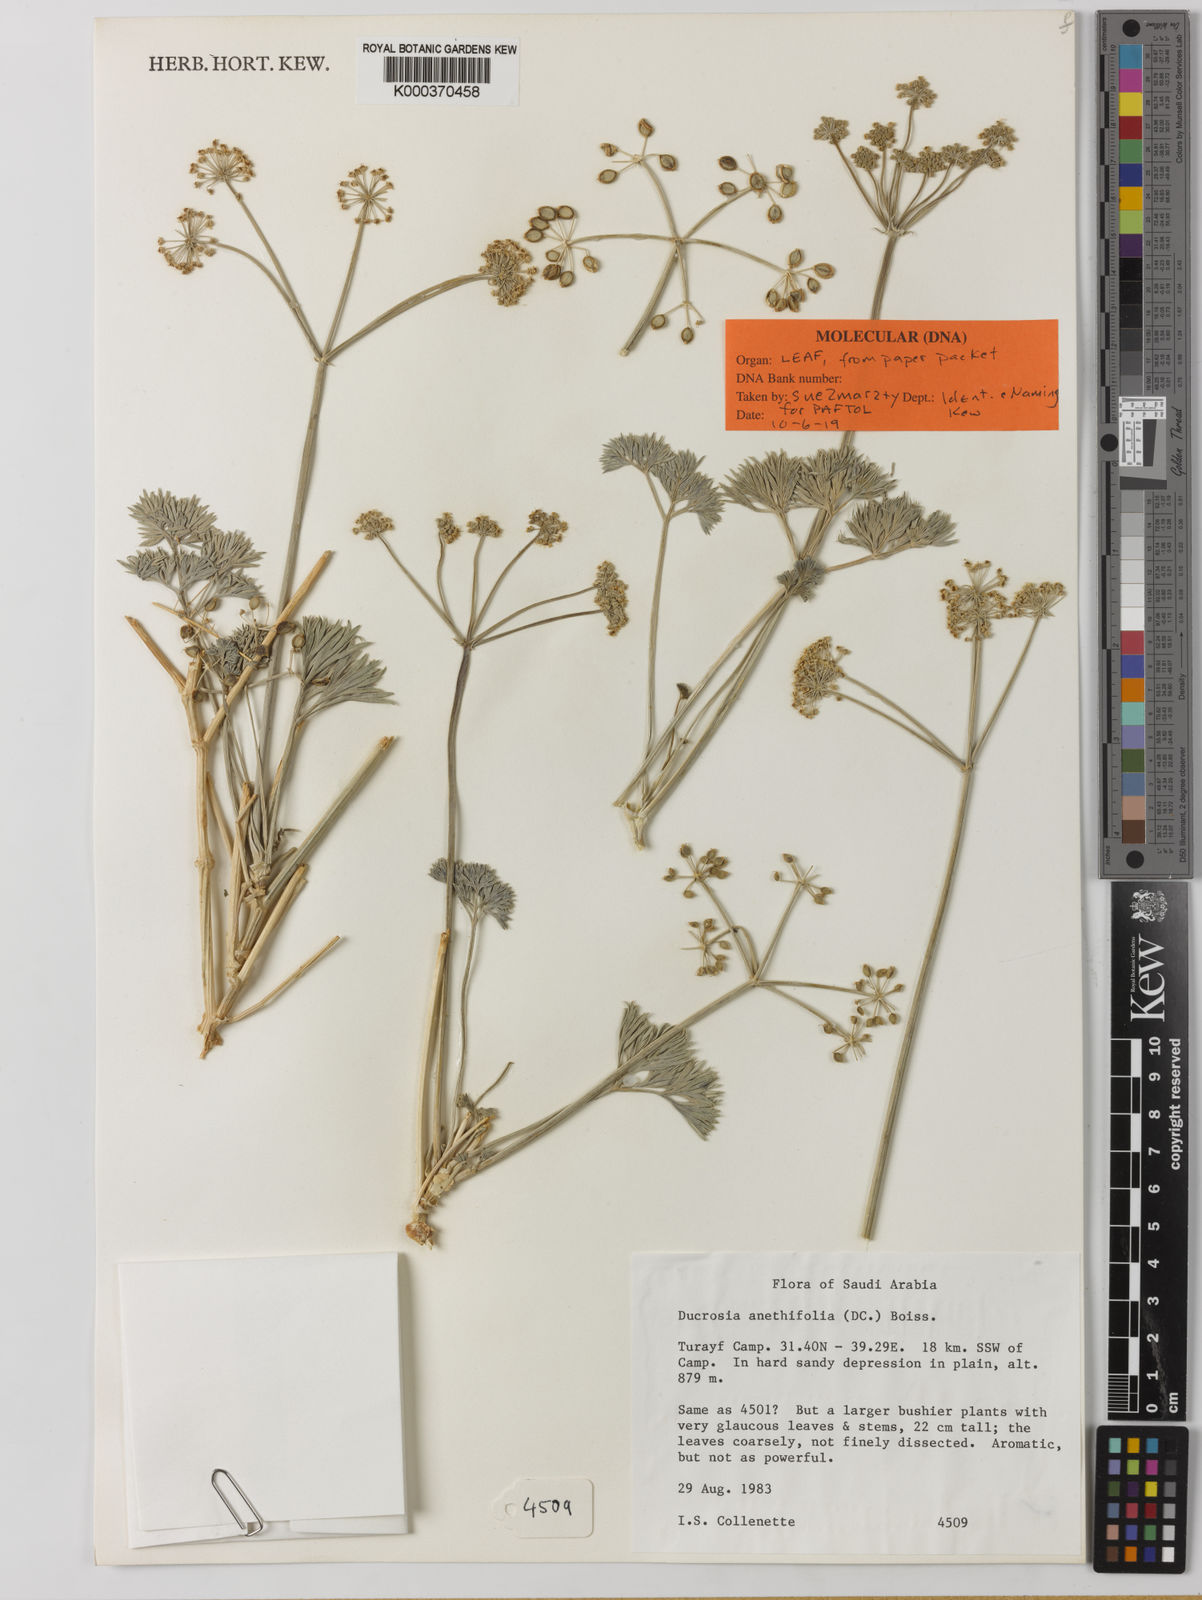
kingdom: Plantae
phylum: Tracheophyta
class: Magnoliopsida
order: Apiales
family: Apiaceae
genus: Ducrosia
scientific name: Ducrosia anethifolia
